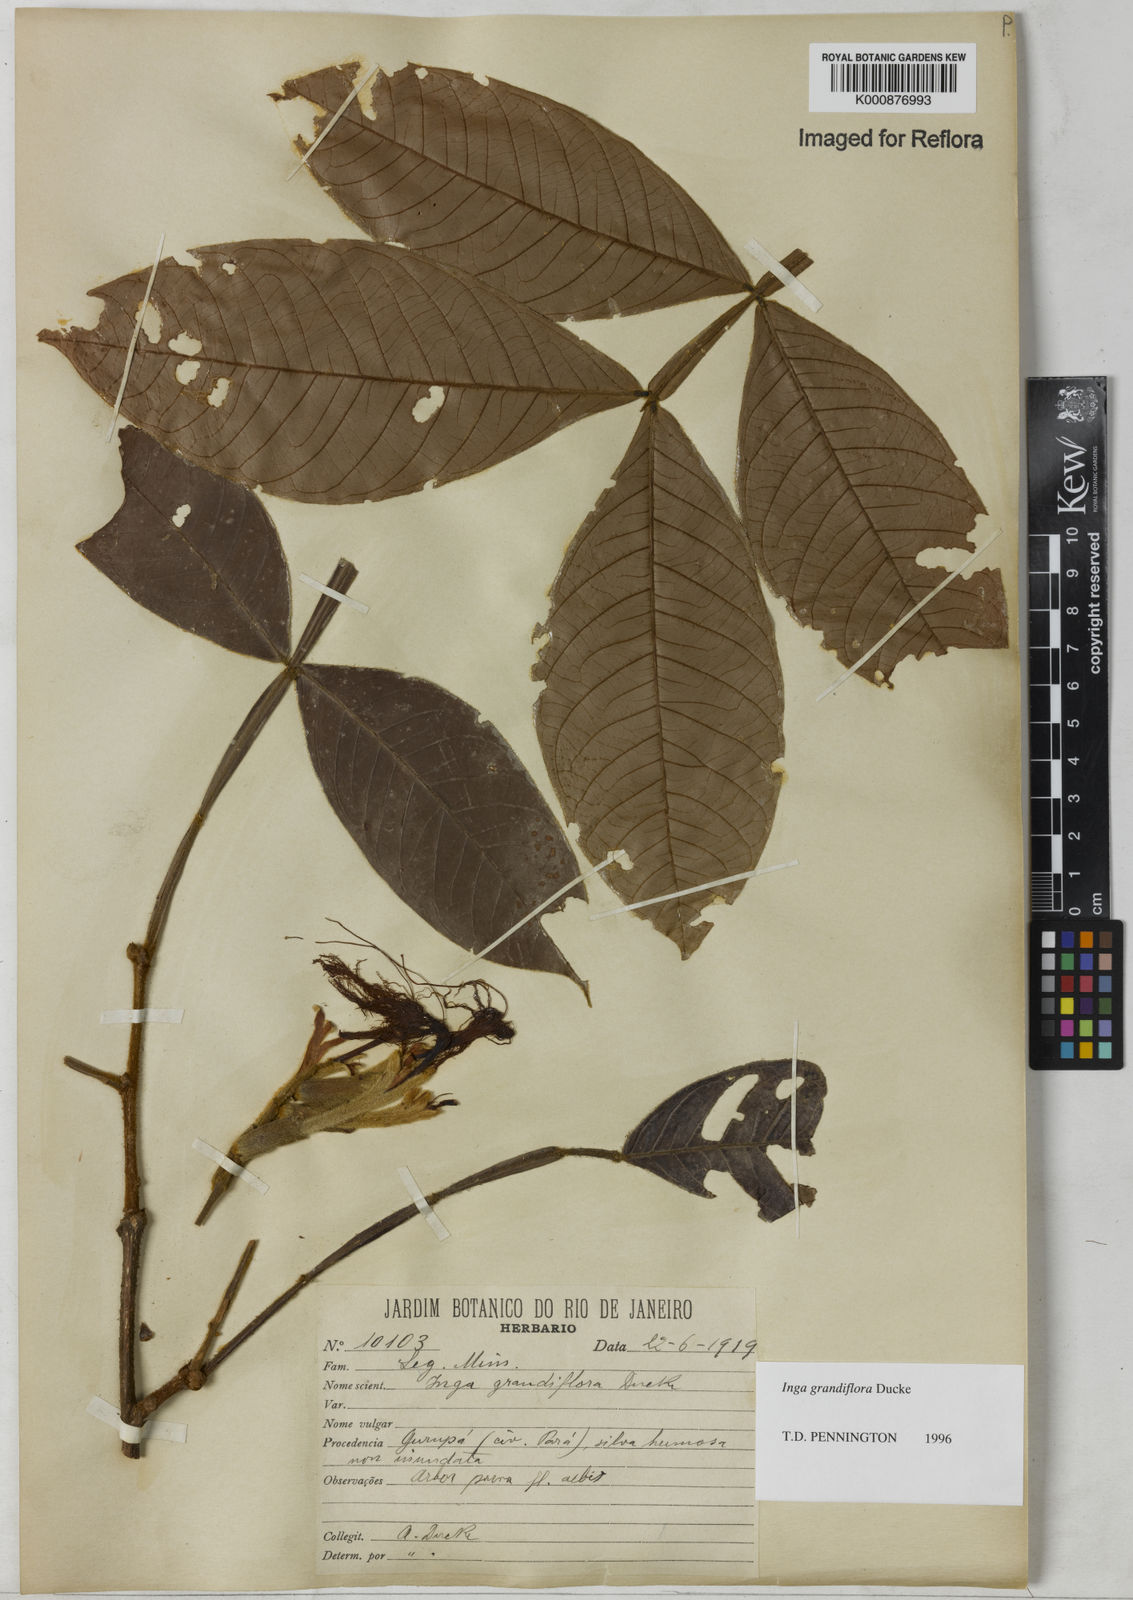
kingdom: Plantae
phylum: Tracheophyta
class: Magnoliopsida
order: Fabales
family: Fabaceae
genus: Inga
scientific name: Inga crassiflora
